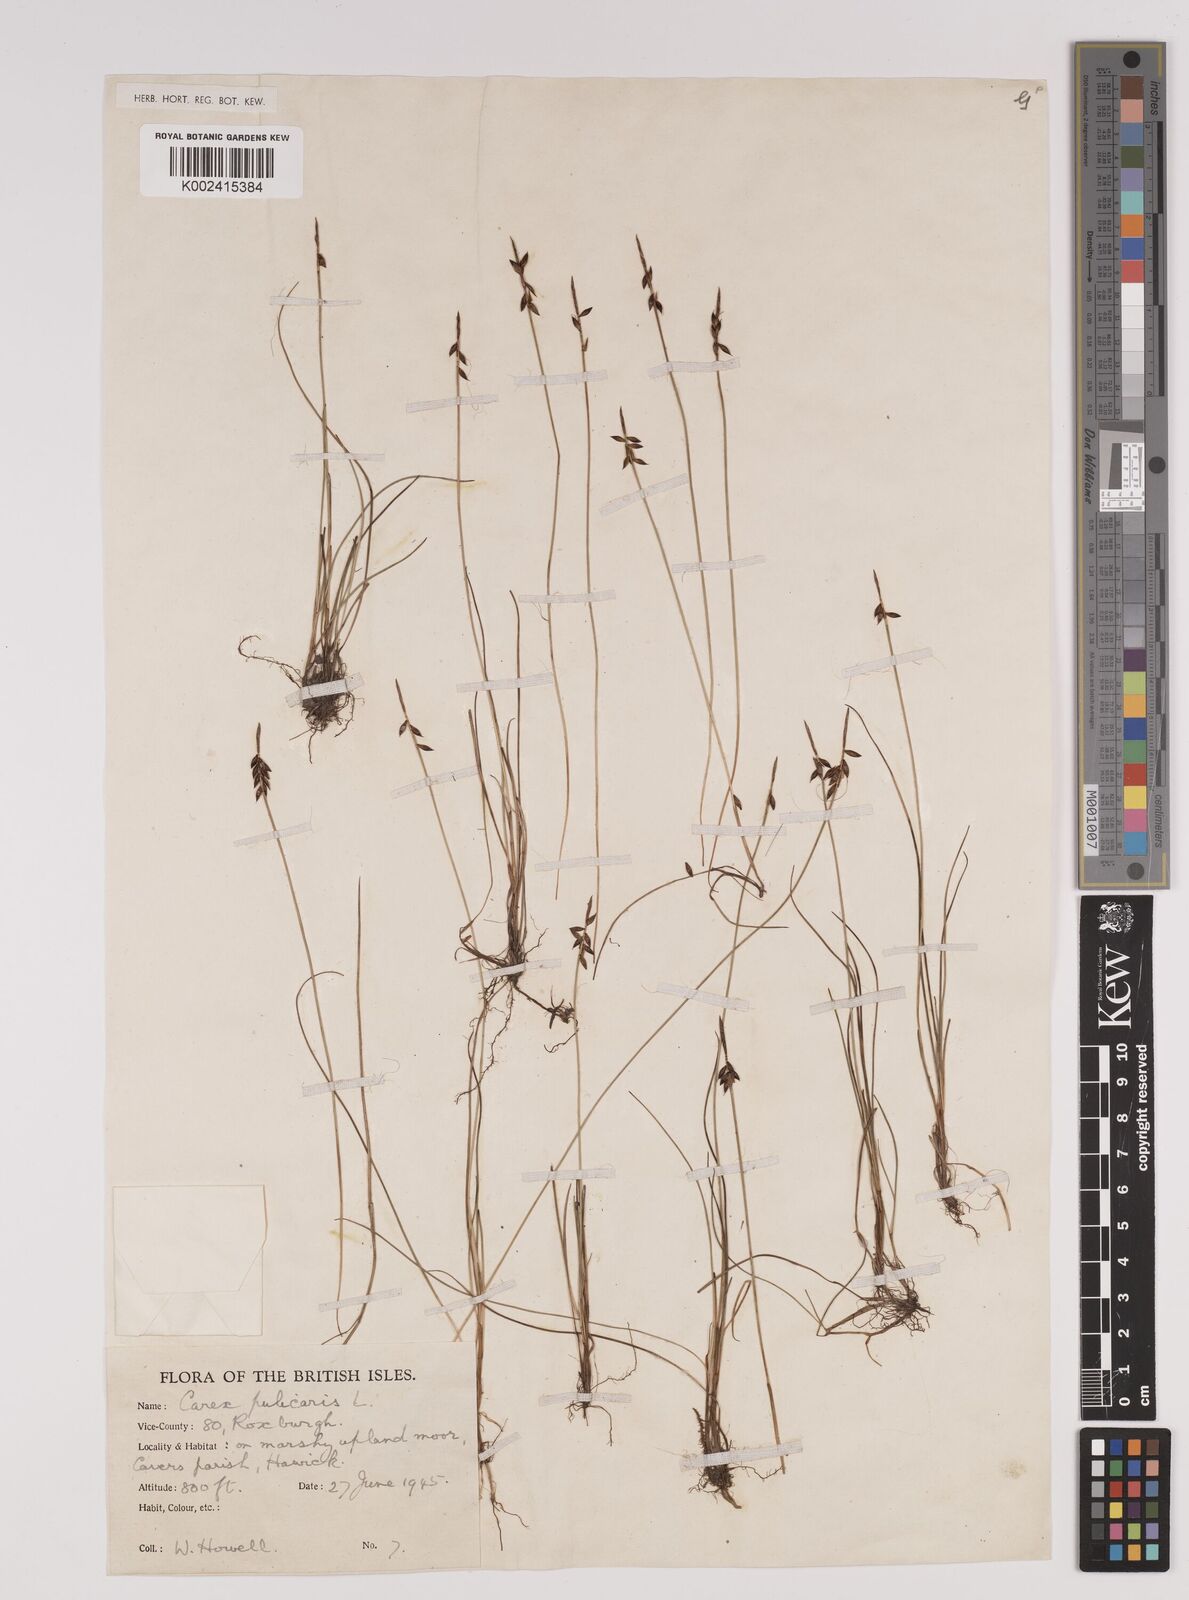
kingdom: Plantae
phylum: Tracheophyta
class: Liliopsida
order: Poales
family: Cyperaceae
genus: Carex
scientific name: Carex pulicaris
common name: Flea sedge
